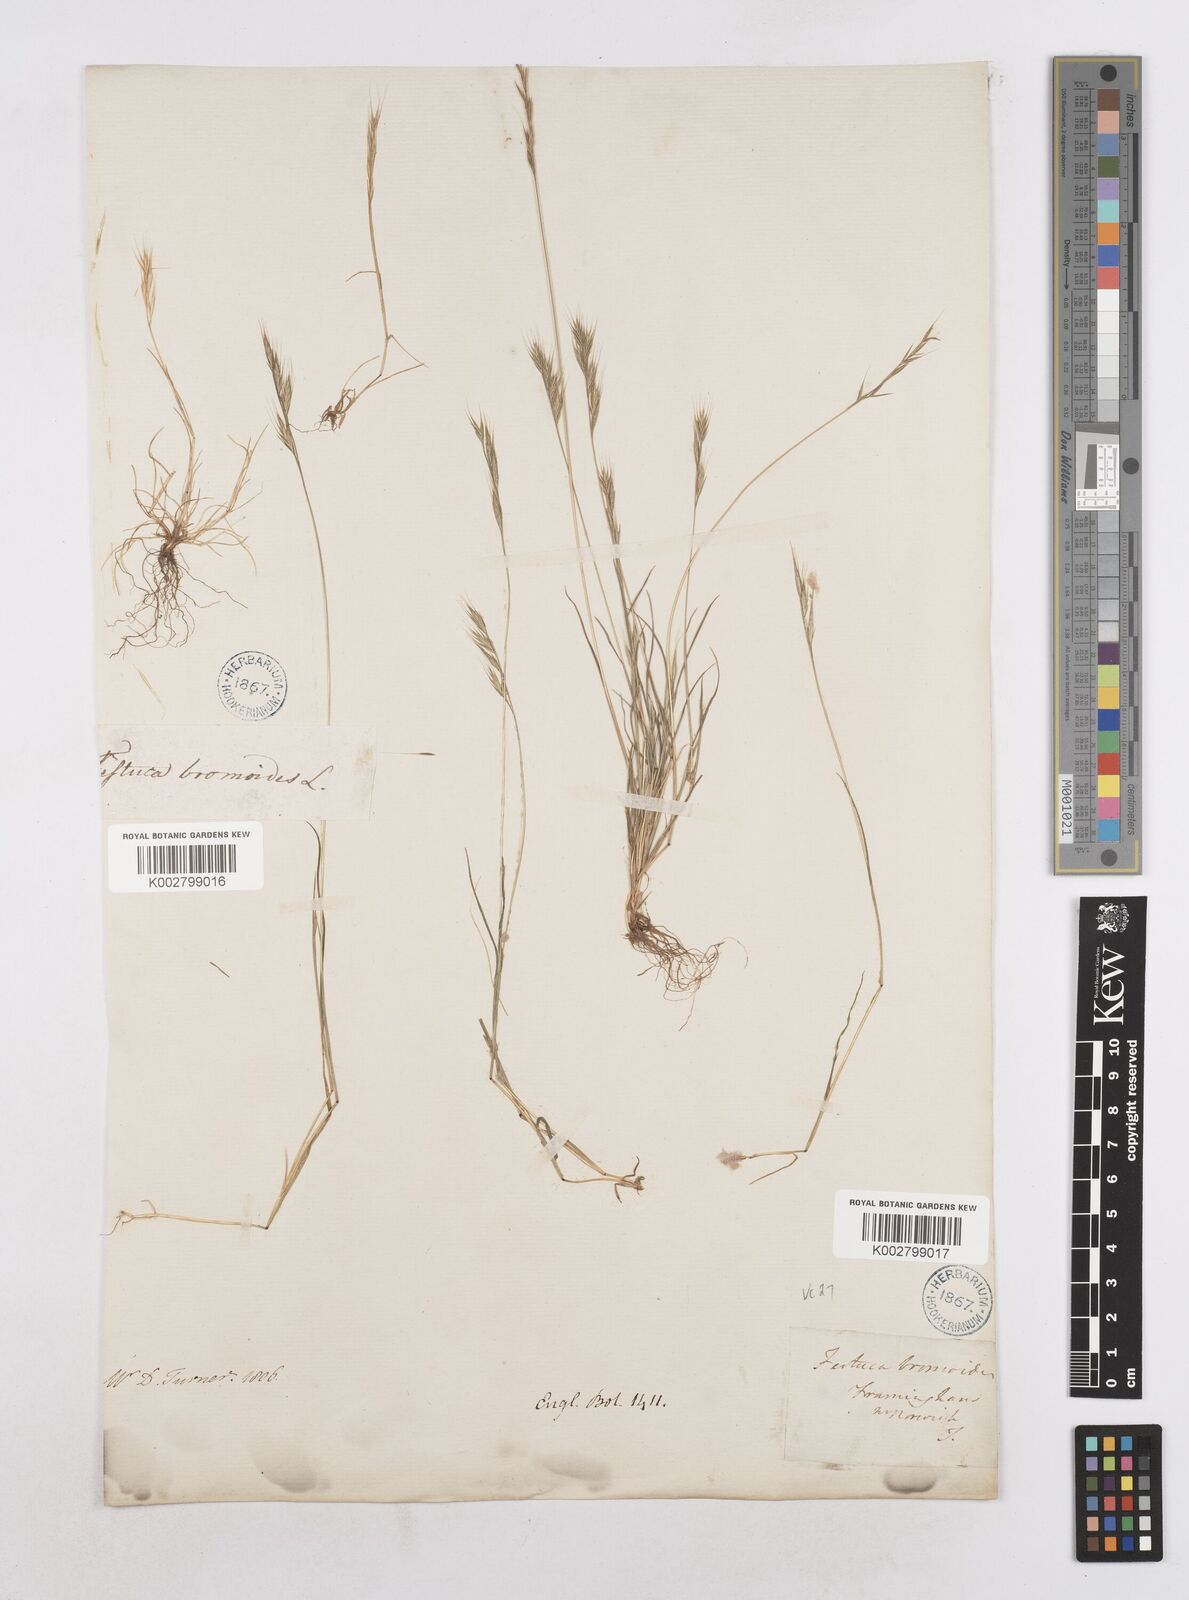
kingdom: Plantae
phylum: Tracheophyta
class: Liliopsida
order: Poales
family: Poaceae
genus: Festuca
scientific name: Festuca bromoides
